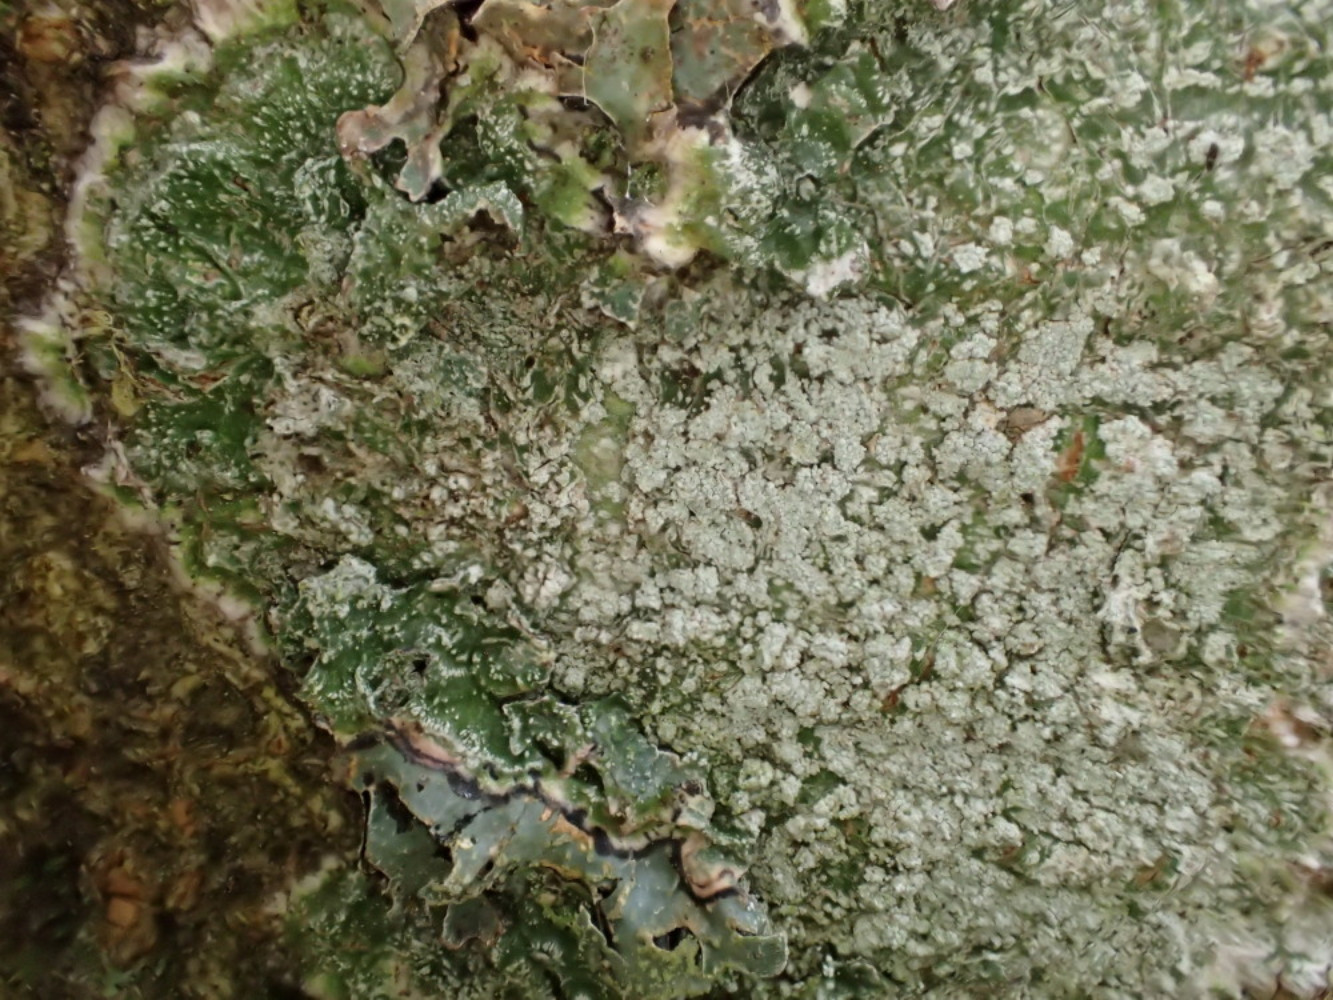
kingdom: Fungi
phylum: Ascomycota
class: Lecanoromycetes
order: Pertusariales
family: Pertusariaceae
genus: Lepra
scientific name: Lepra amara
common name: bitter prikvortelav
